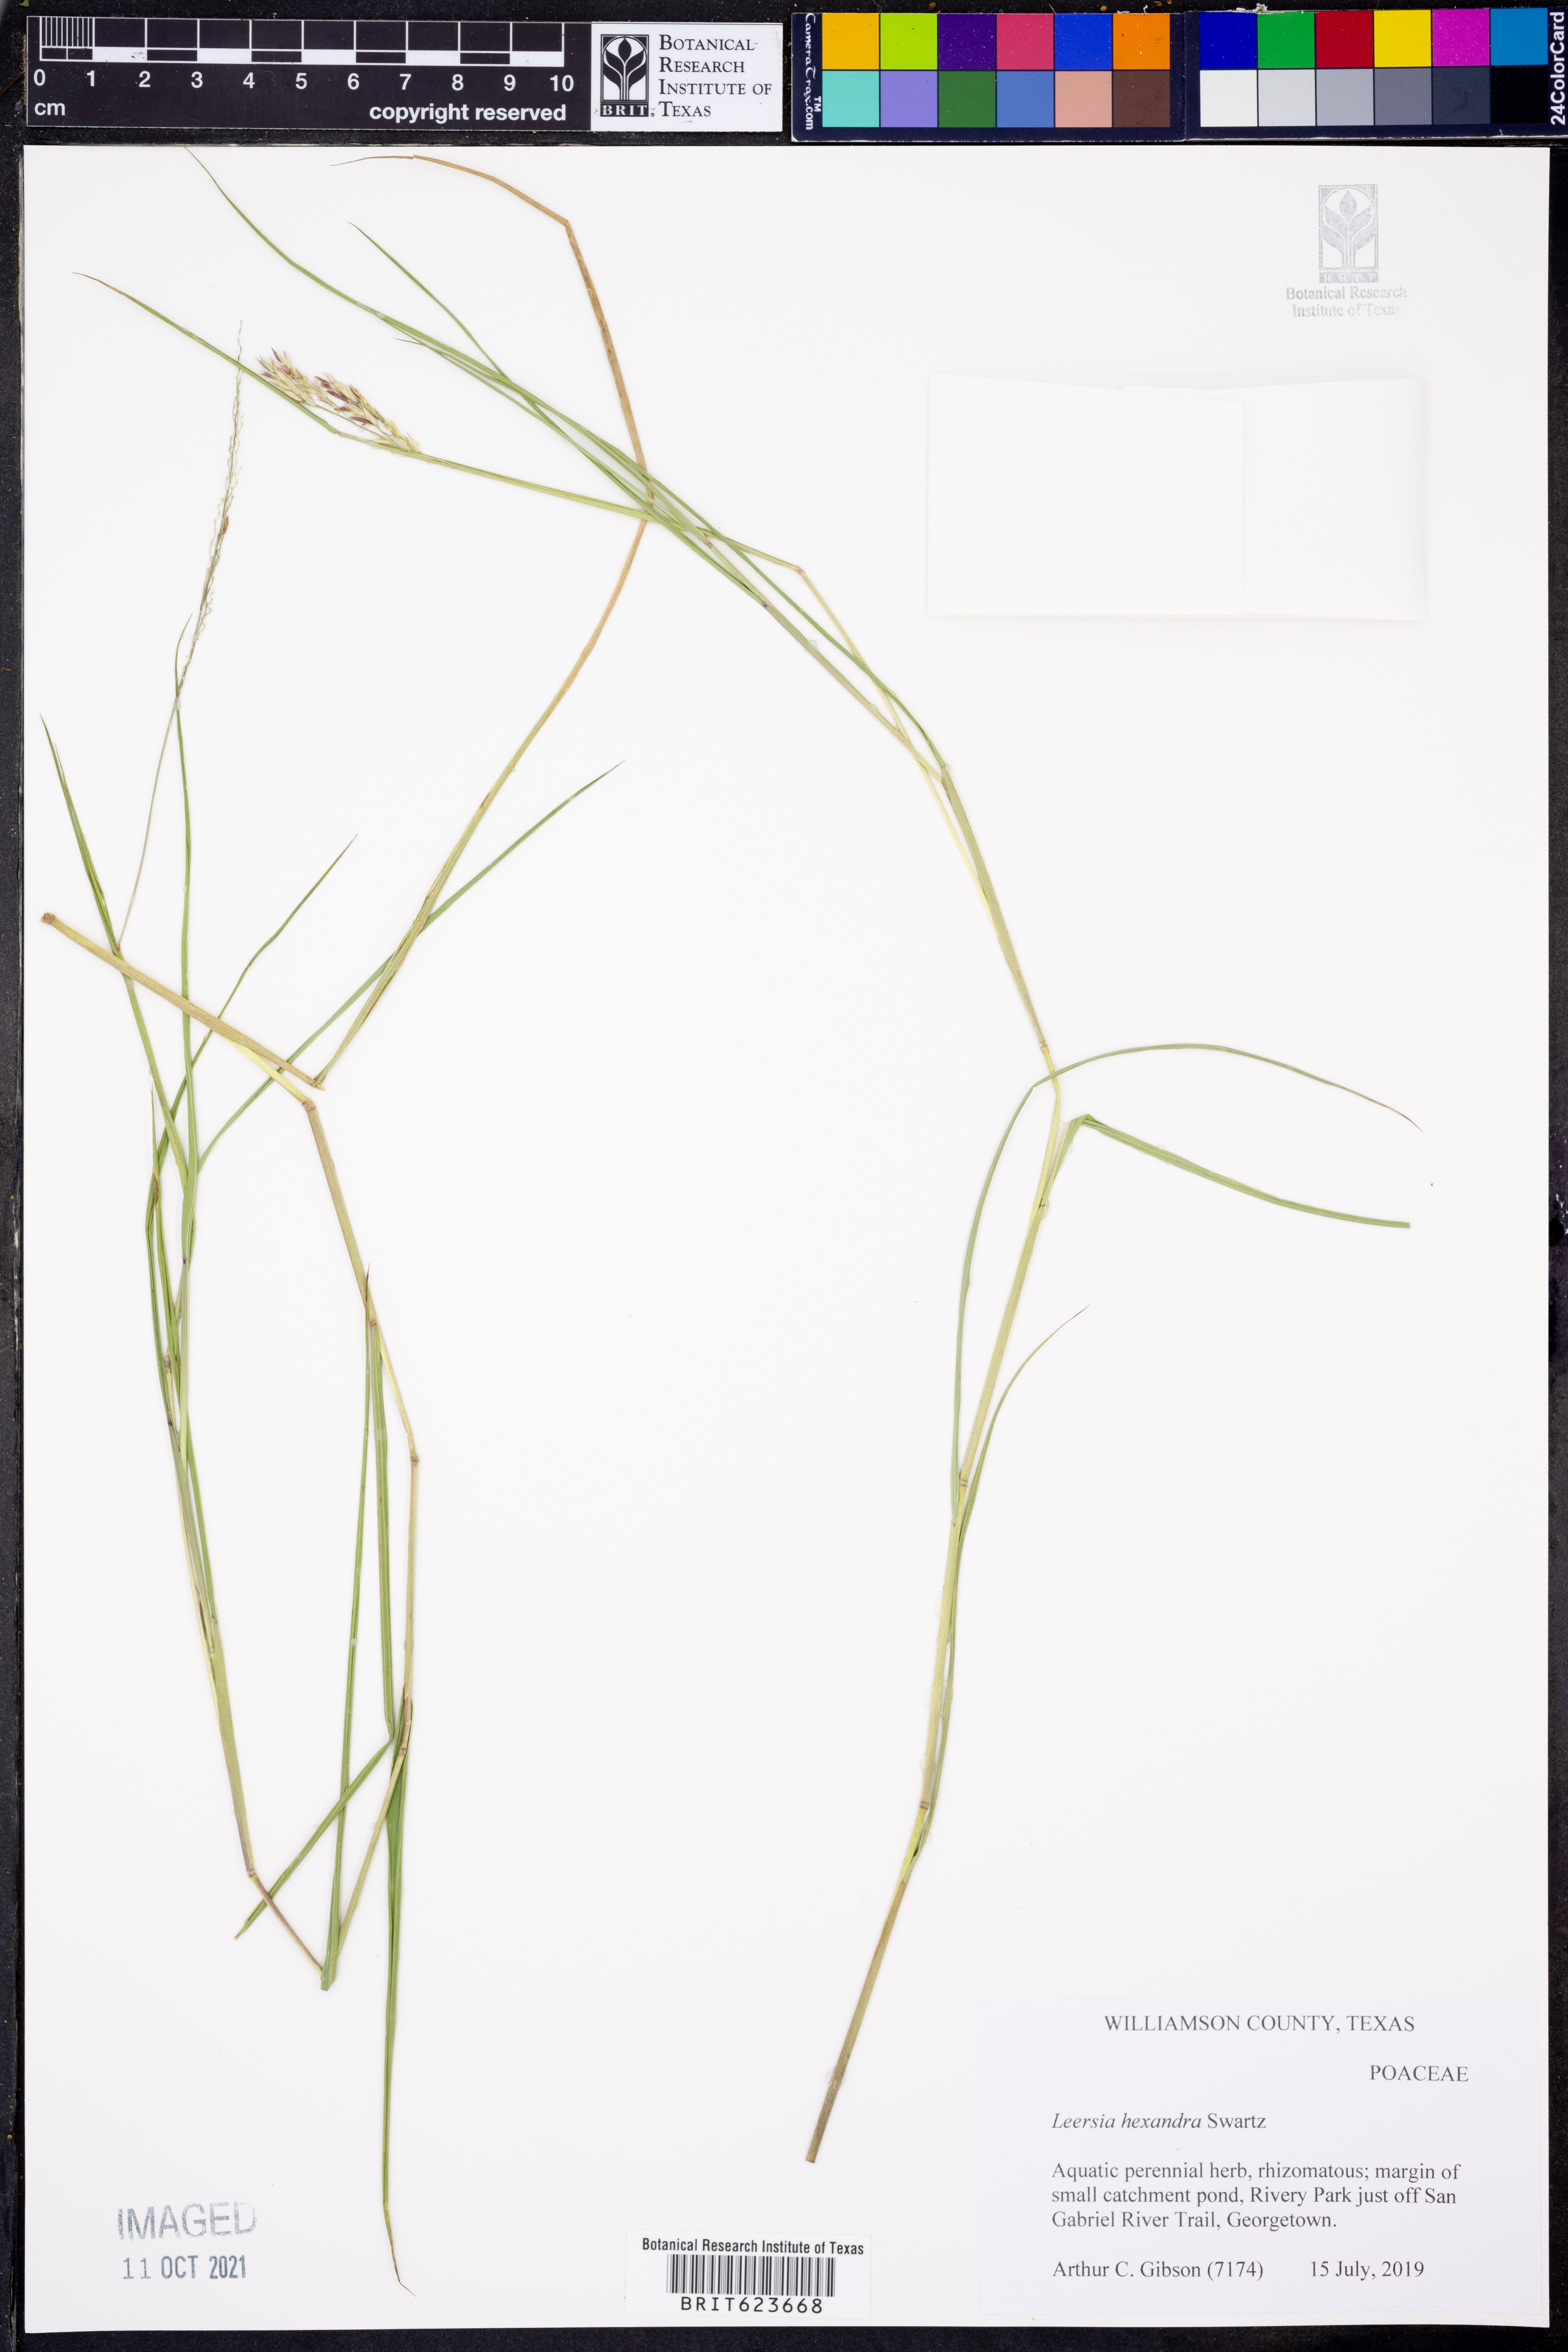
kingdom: Plantae
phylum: Tracheophyta
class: Liliopsida
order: Poales
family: Poaceae
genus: Leersia
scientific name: Leersia hexandra
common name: Southern cut grass
